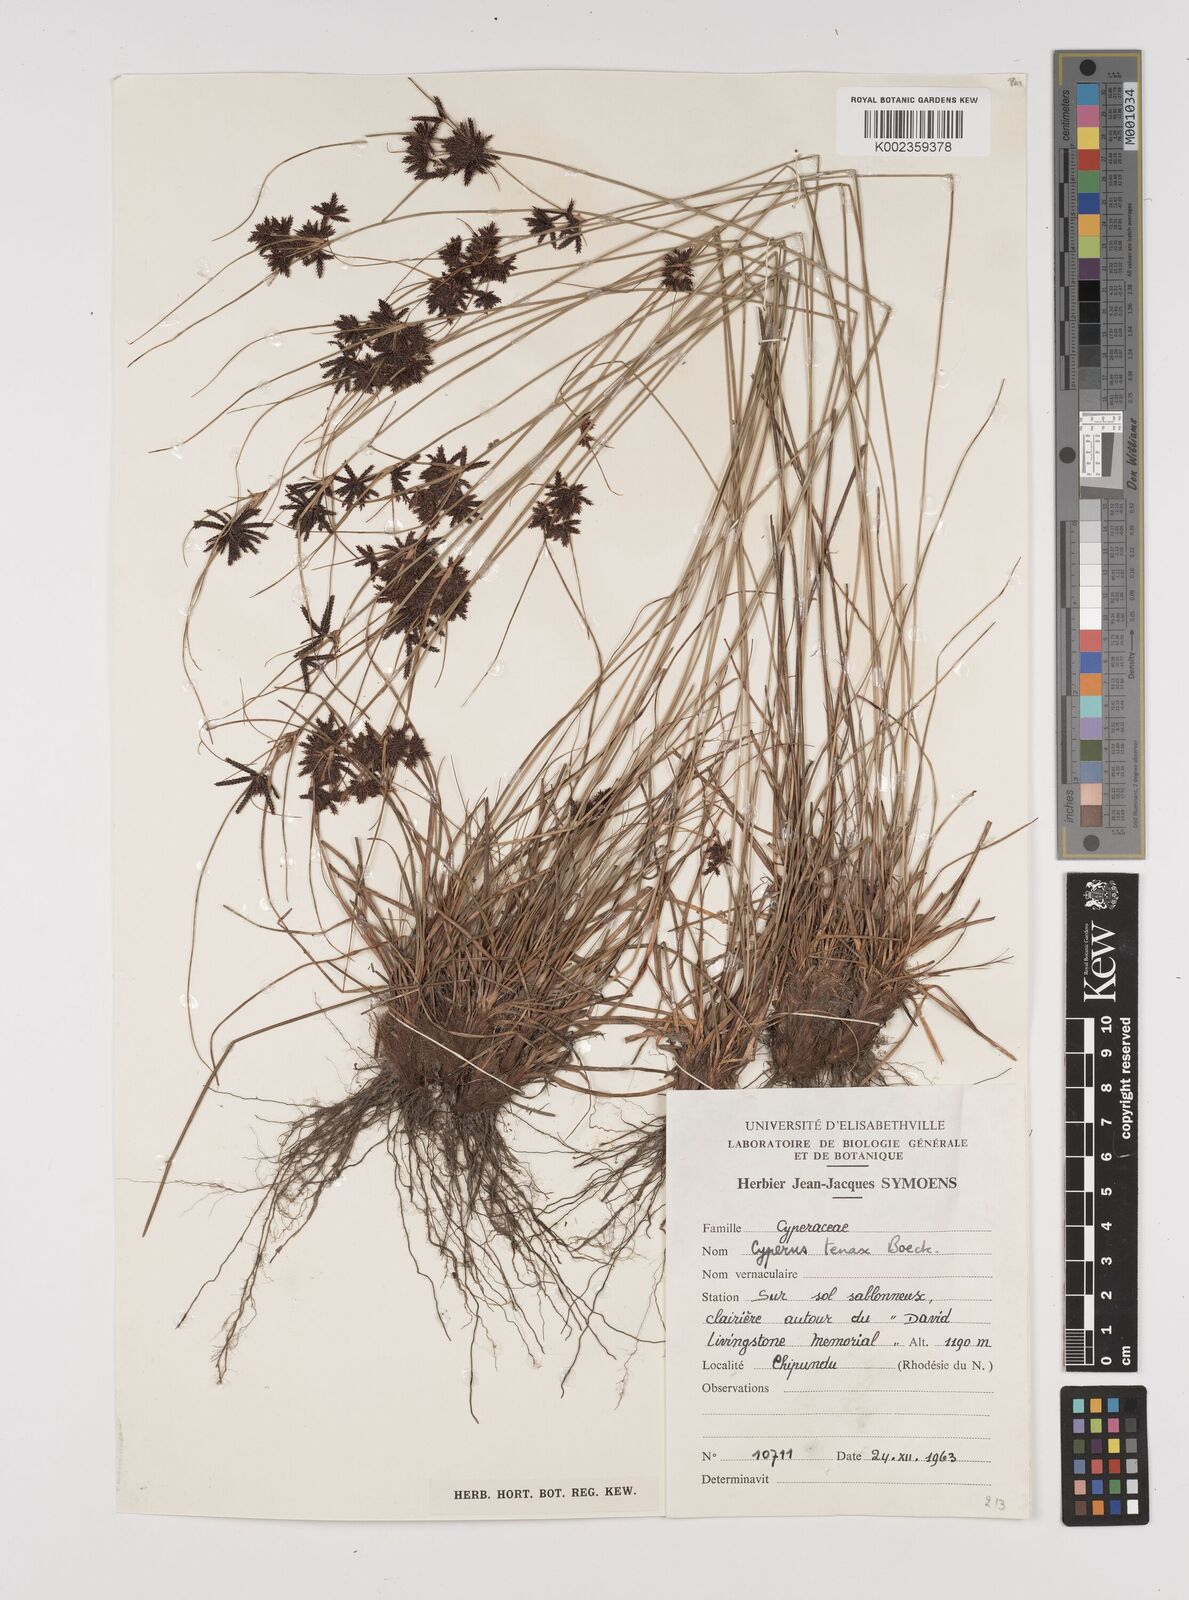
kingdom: Plantae
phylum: Tracheophyta
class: Liliopsida
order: Poales
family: Cyperaceae
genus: Cyperus
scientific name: Cyperus tenax
